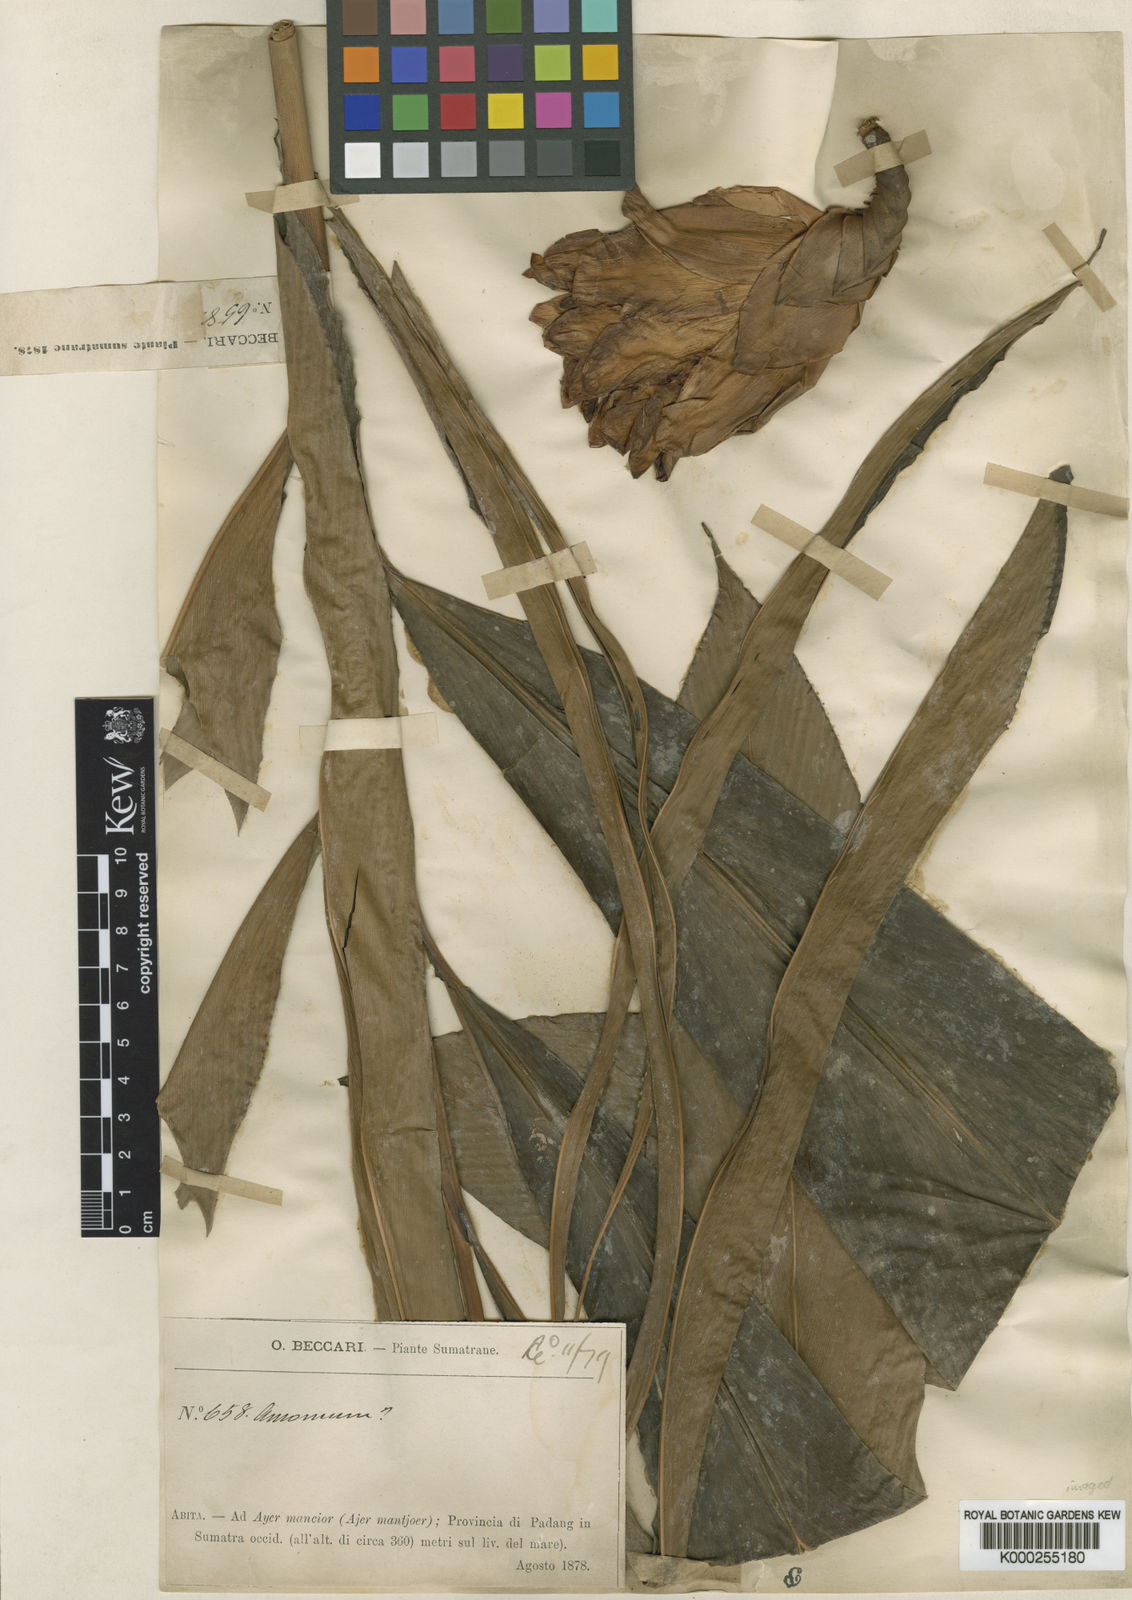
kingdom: Plantae
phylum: Tracheophyta
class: Liliopsida
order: Zingiberales
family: Zingiberaceae
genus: Hornstedtia
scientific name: Hornstedtia rubra
